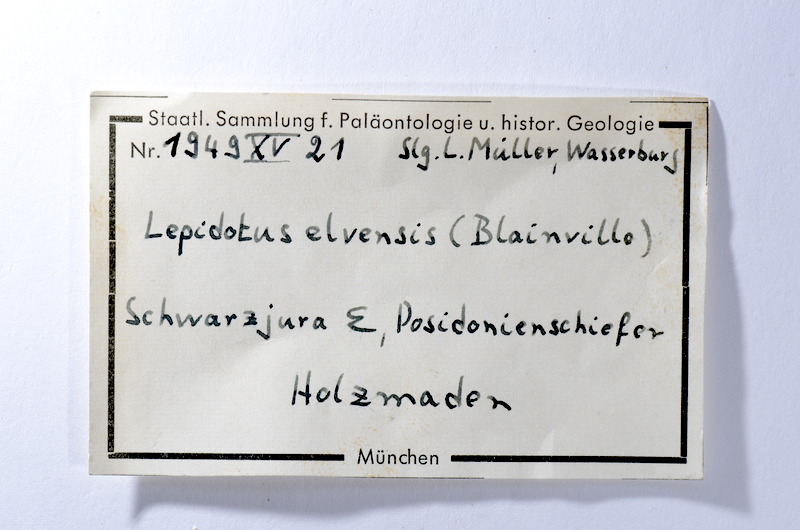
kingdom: Animalia
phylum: Chordata
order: Lepisosteiformes
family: Lepidotidae
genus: Lepidotes
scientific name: Lepidotes elvensis
